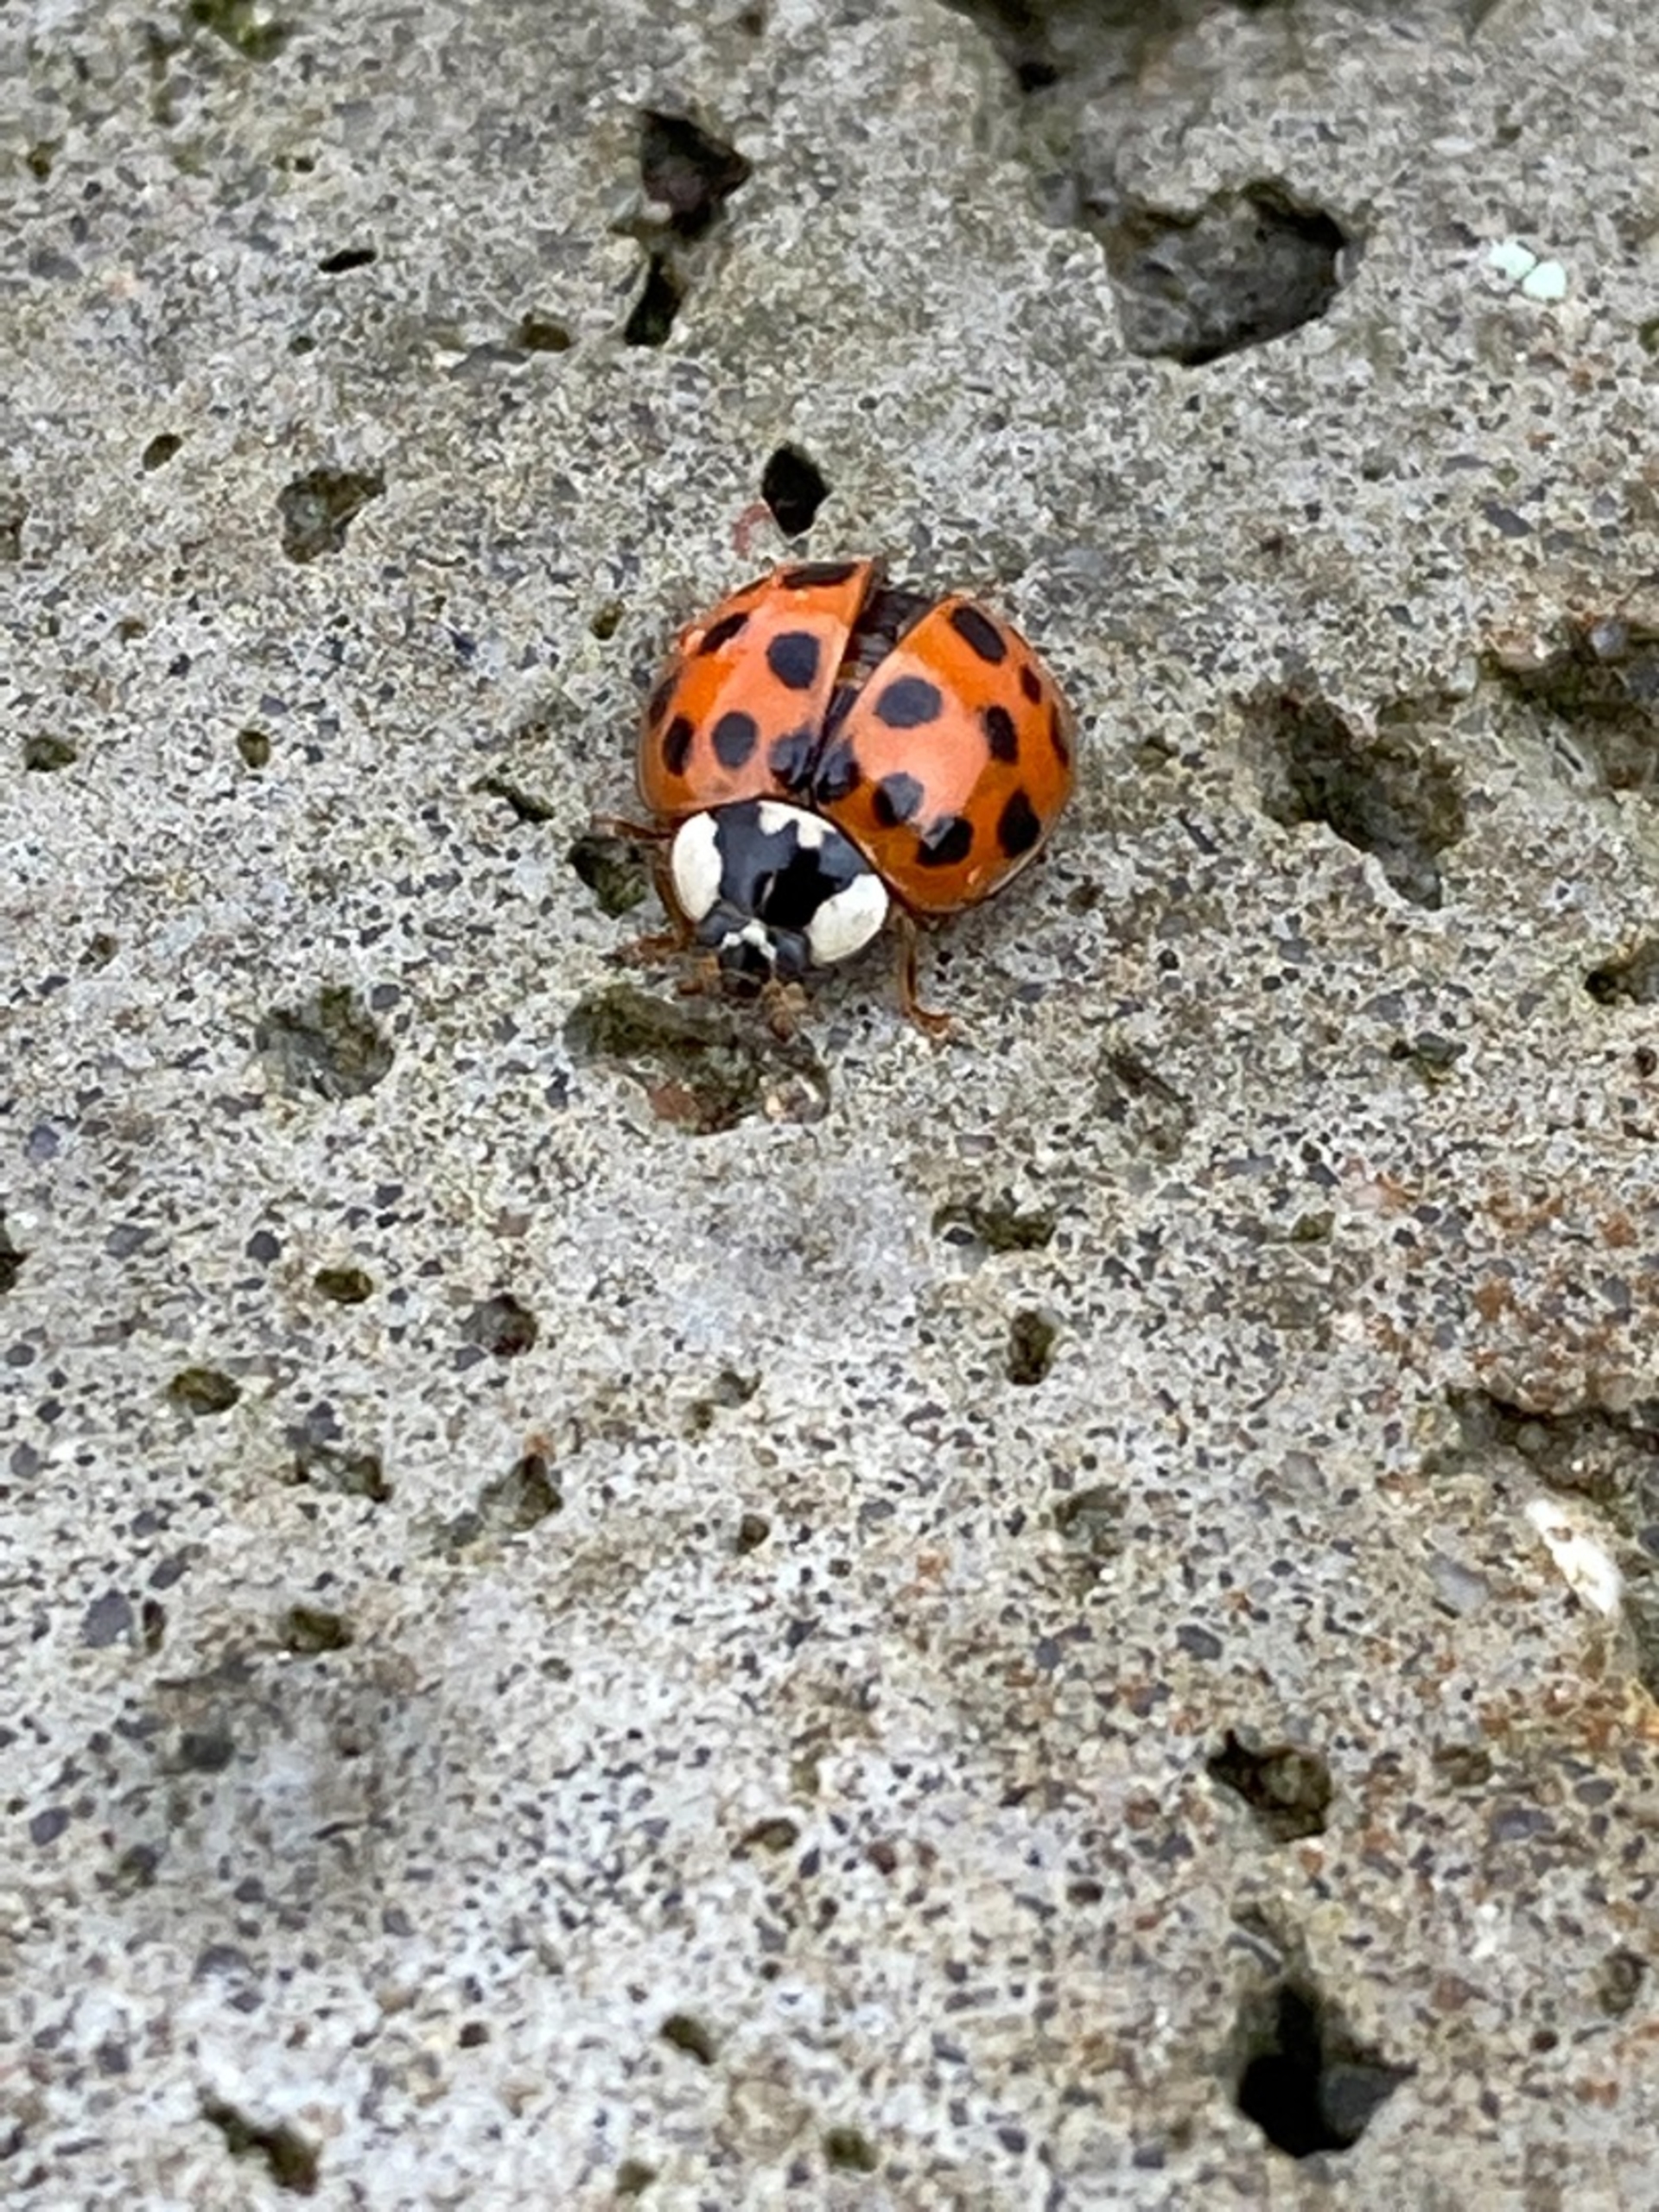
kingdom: Animalia
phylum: Arthropoda
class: Insecta
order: Coleoptera
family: Coccinellidae
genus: Harmonia
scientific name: Harmonia axyridis
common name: Harlekinmariehøne
